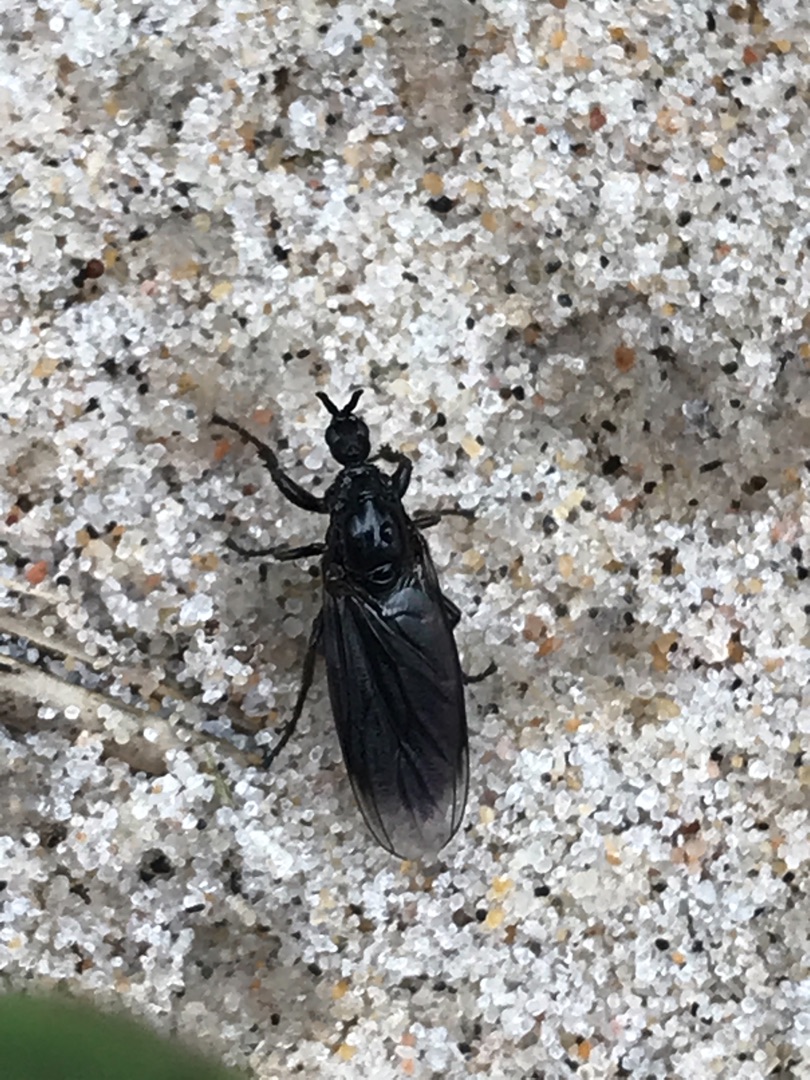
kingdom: Animalia
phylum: Arthropoda
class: Insecta
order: Diptera
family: Bibionidae
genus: Dilophus
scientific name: Dilophus febrilis
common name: Græshårmyg
